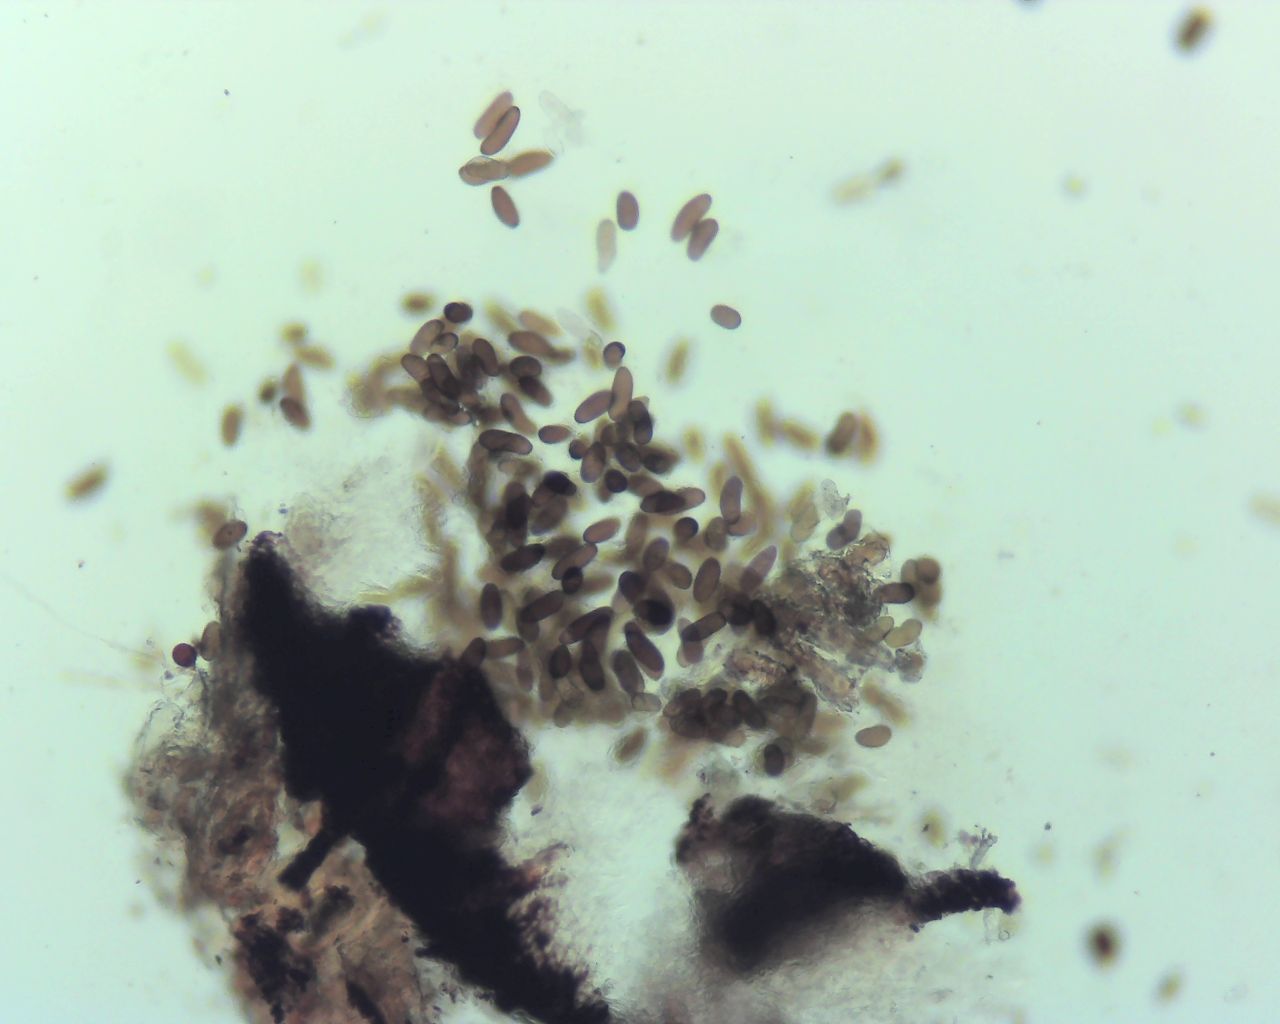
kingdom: Fungi
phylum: Ascomycota
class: Dothideomycetes
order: Botryosphaeriales
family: Botryosphaeriaceae
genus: Sphaeropsis
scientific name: Sphaeropsis sapinea
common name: Sphaeropsis blight
